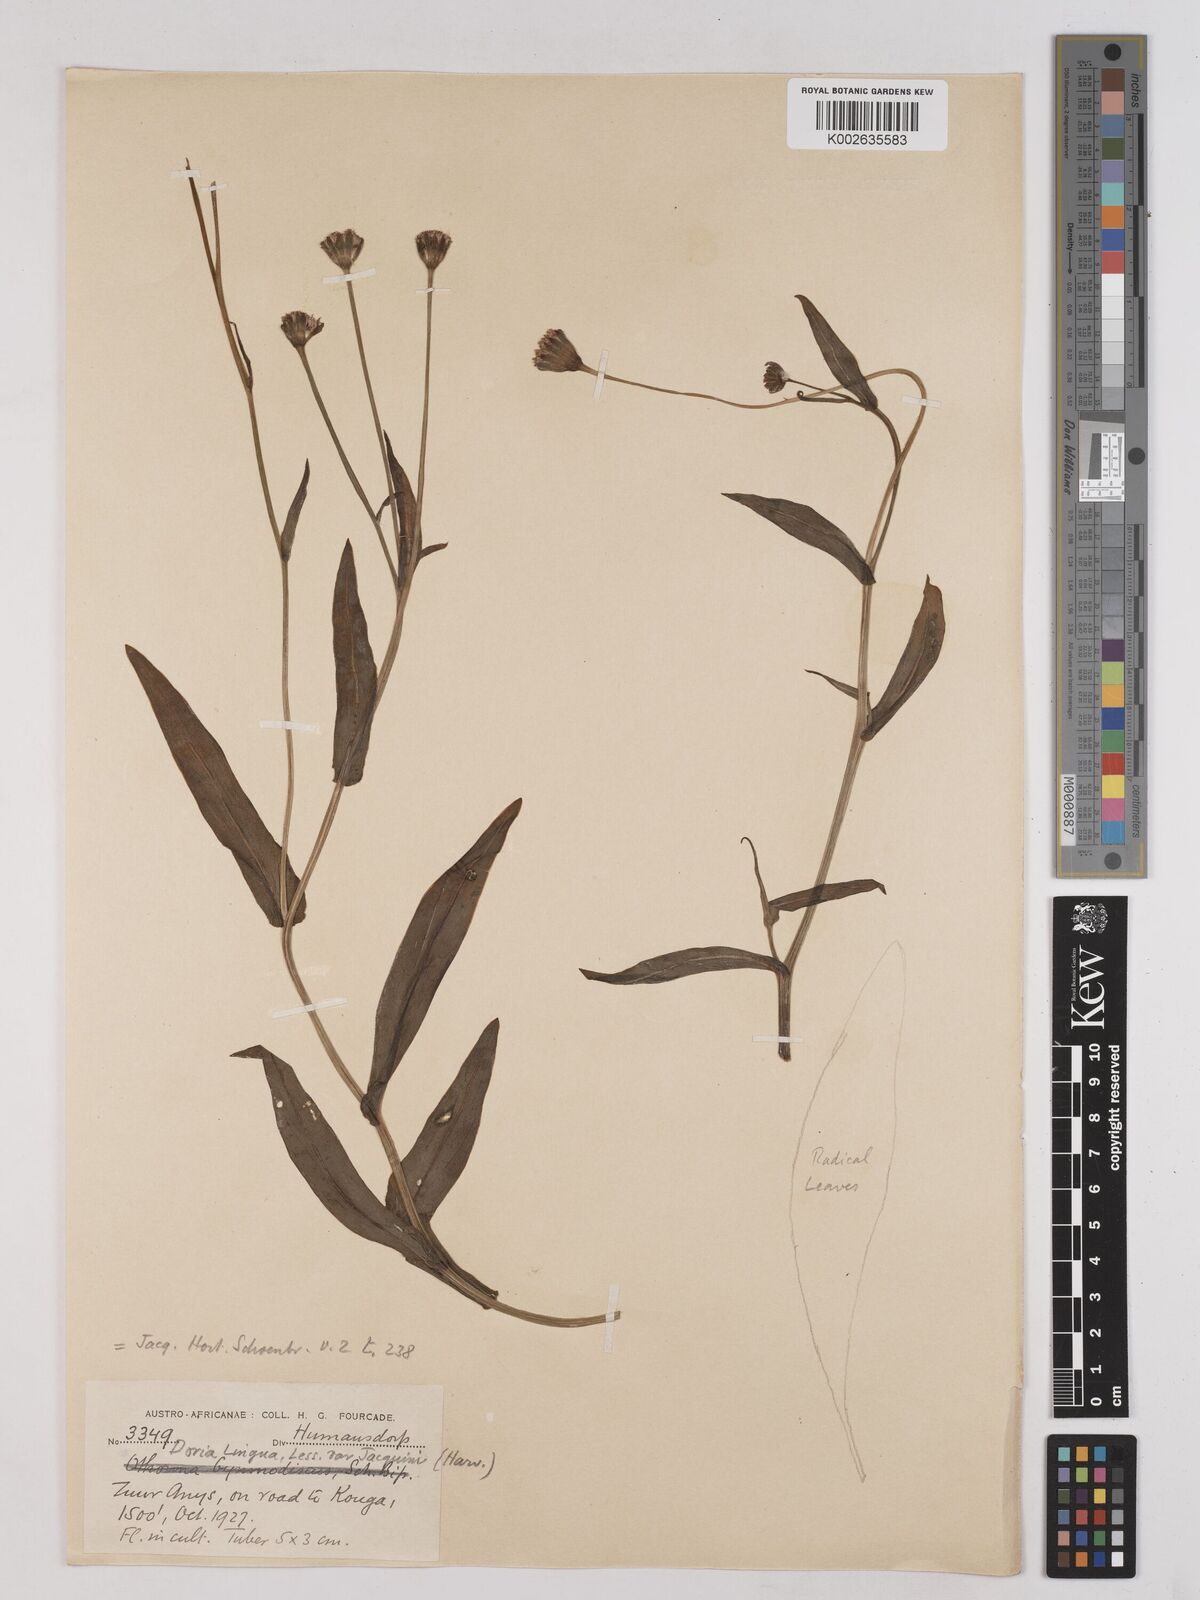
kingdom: Plantae
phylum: Tracheophyta
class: Magnoliopsida
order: Asterales
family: Asteraceae
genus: Othonna
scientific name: Othonna bulbosa
